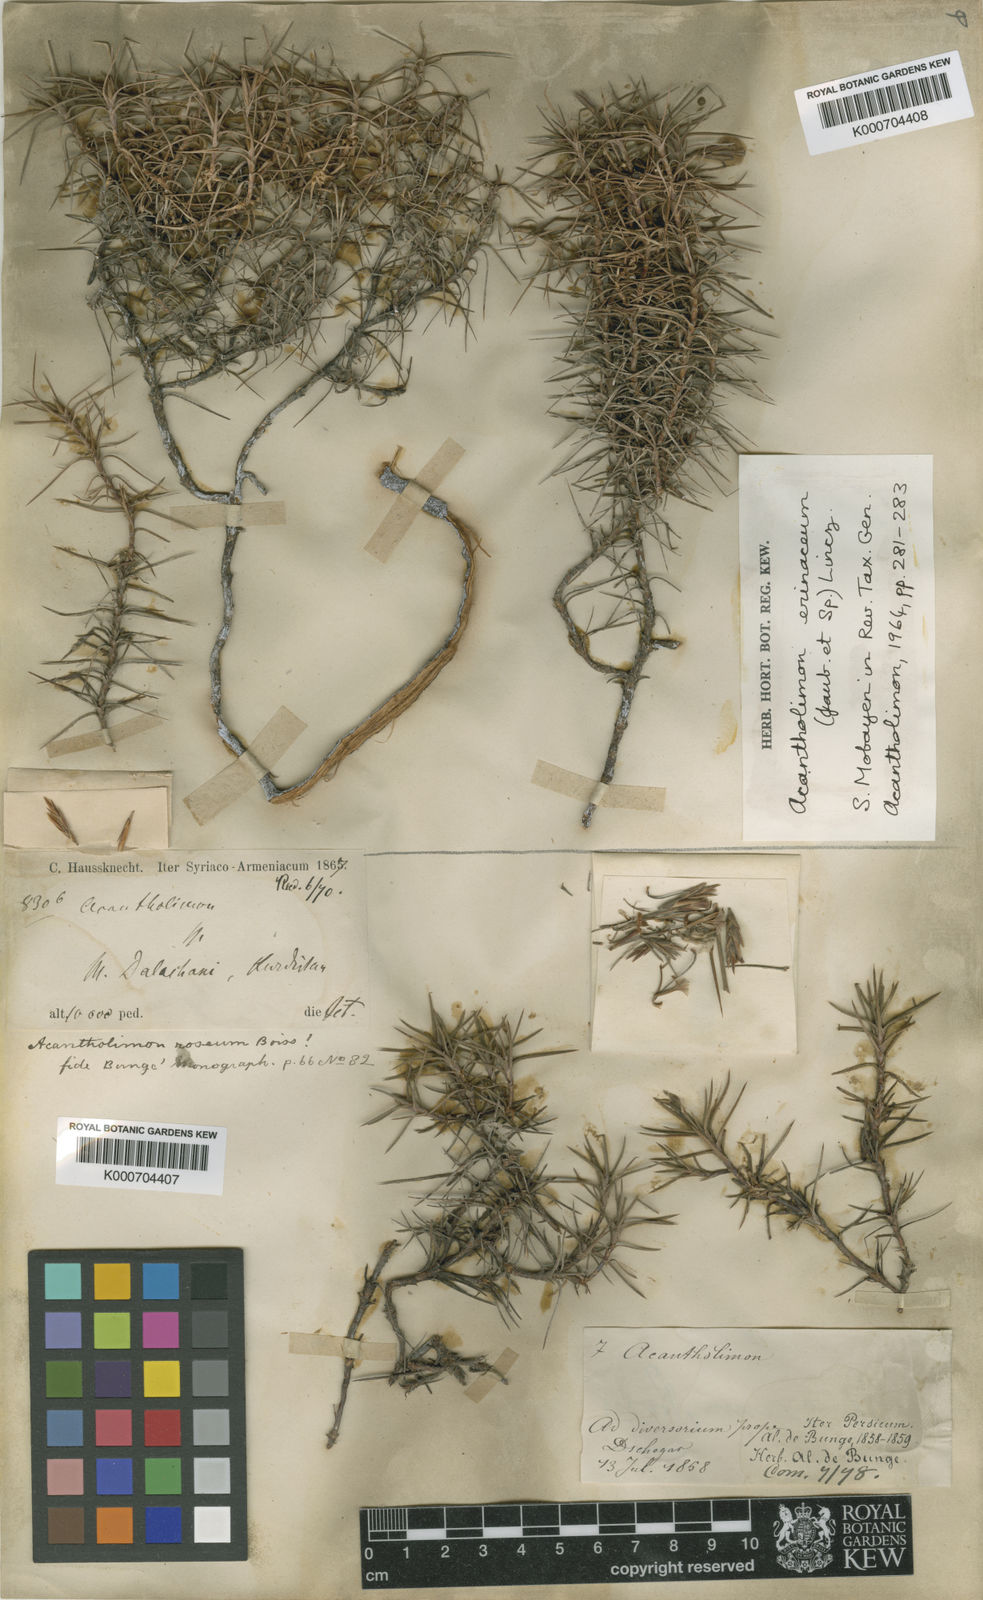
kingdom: Plantae
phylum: Tracheophyta
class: Magnoliopsida
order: Caryophyllales
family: Plumbaginaceae
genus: Acantholimon
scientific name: Acantholimon erinaceum
